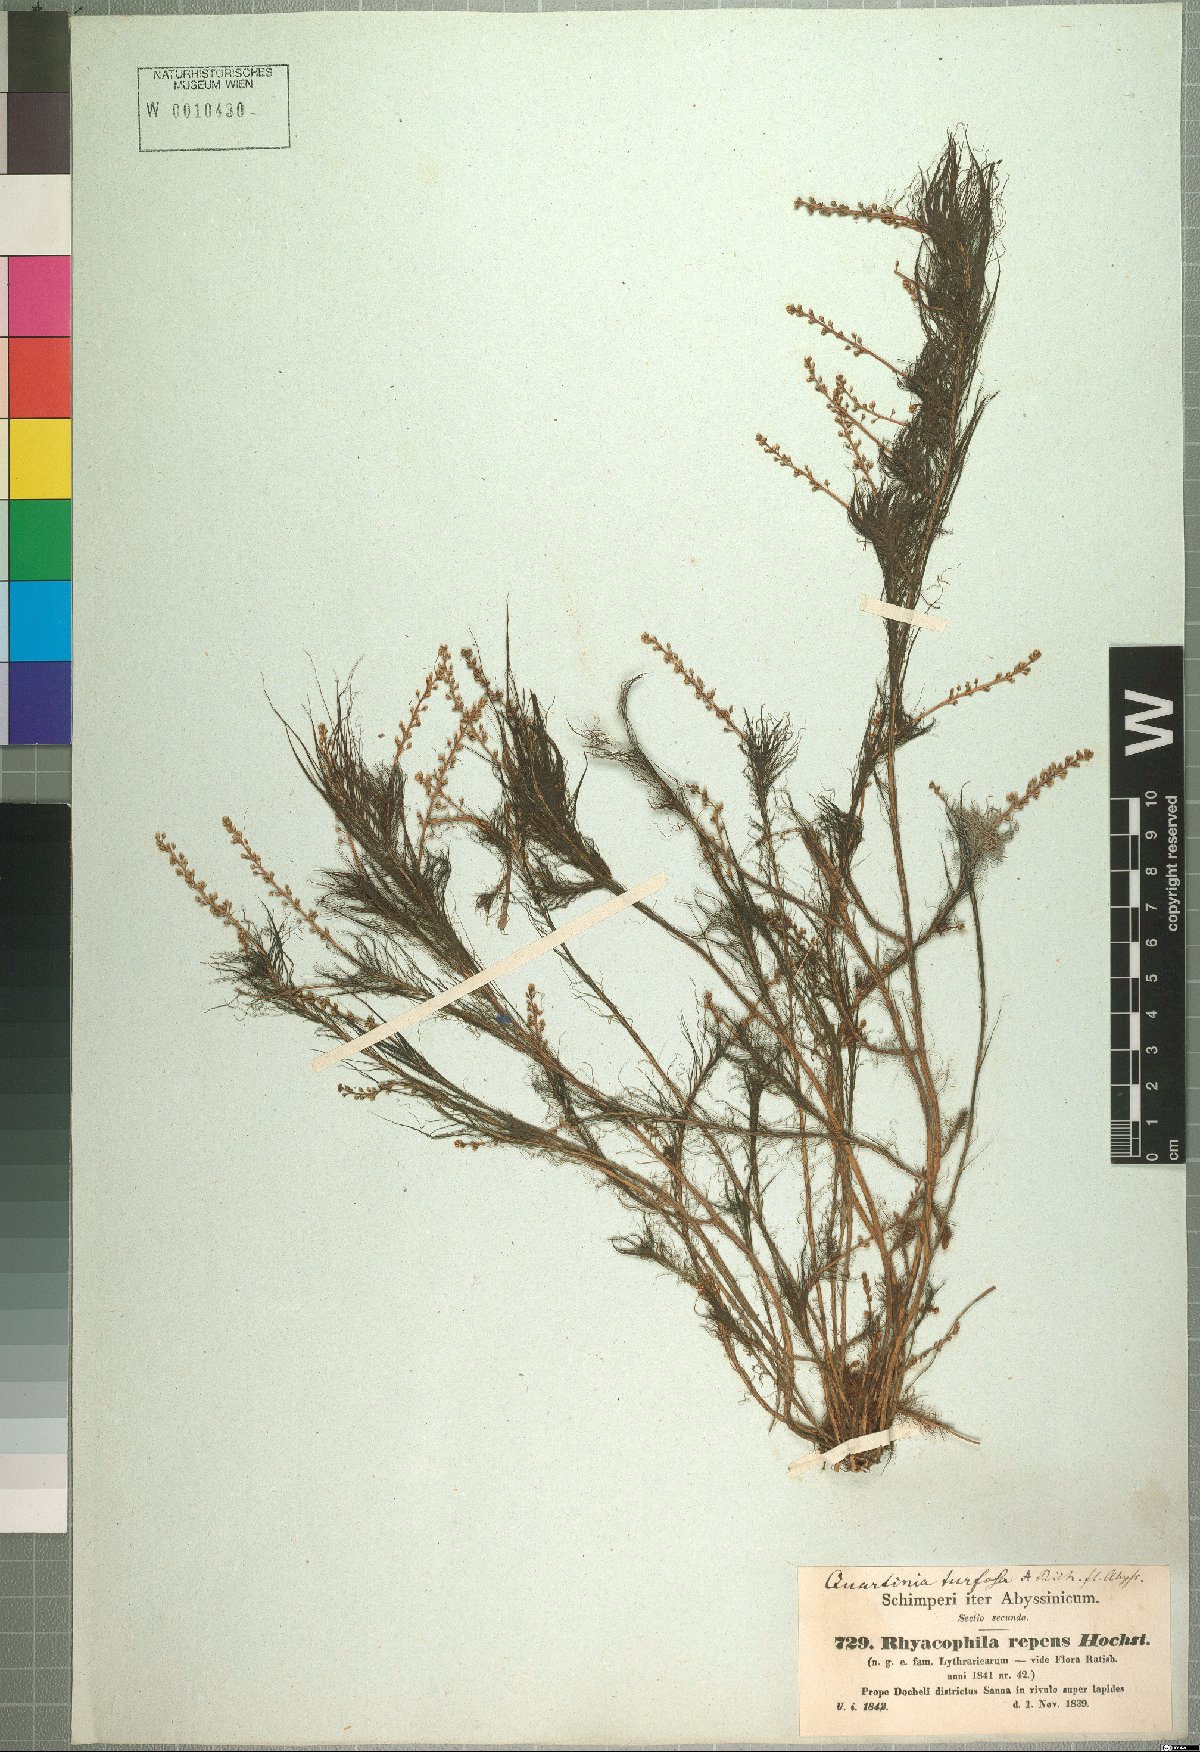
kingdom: Plantae
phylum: Tracheophyta
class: Magnoliopsida
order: Myrtales
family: Lythraceae
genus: Rotala
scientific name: Rotala repens
